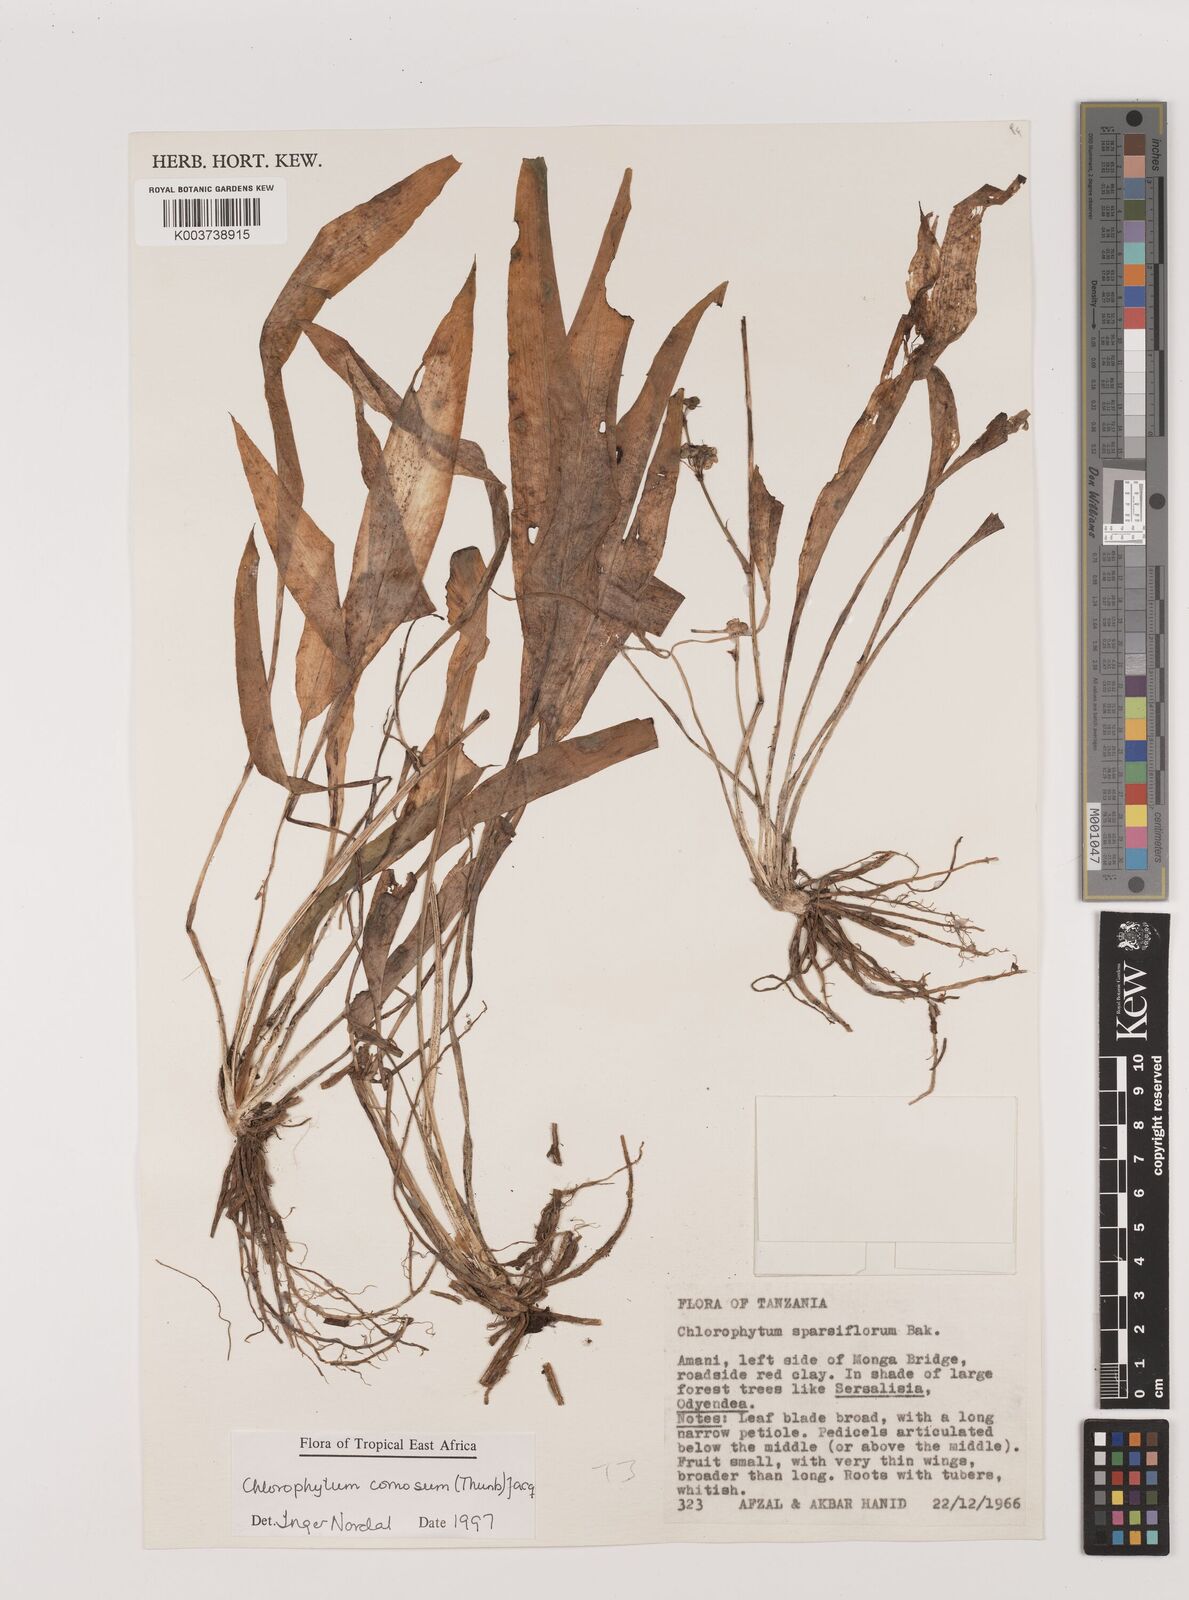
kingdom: Plantae
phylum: Tracheophyta
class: Liliopsida
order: Asparagales
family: Asparagaceae
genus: Chlorophytum
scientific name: Chlorophytum comosum
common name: Spider plant
